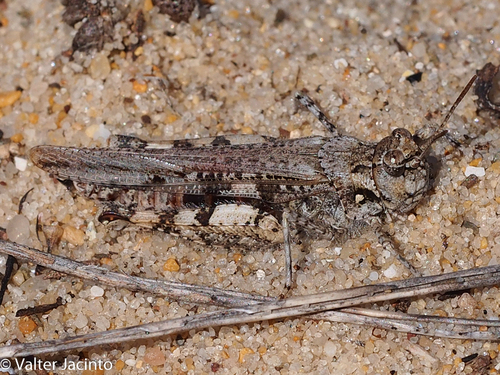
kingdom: Animalia
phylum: Arthropoda
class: Insecta
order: Orthoptera
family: Acrididae
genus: Acrotylus
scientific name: Acrotylus insubricus
